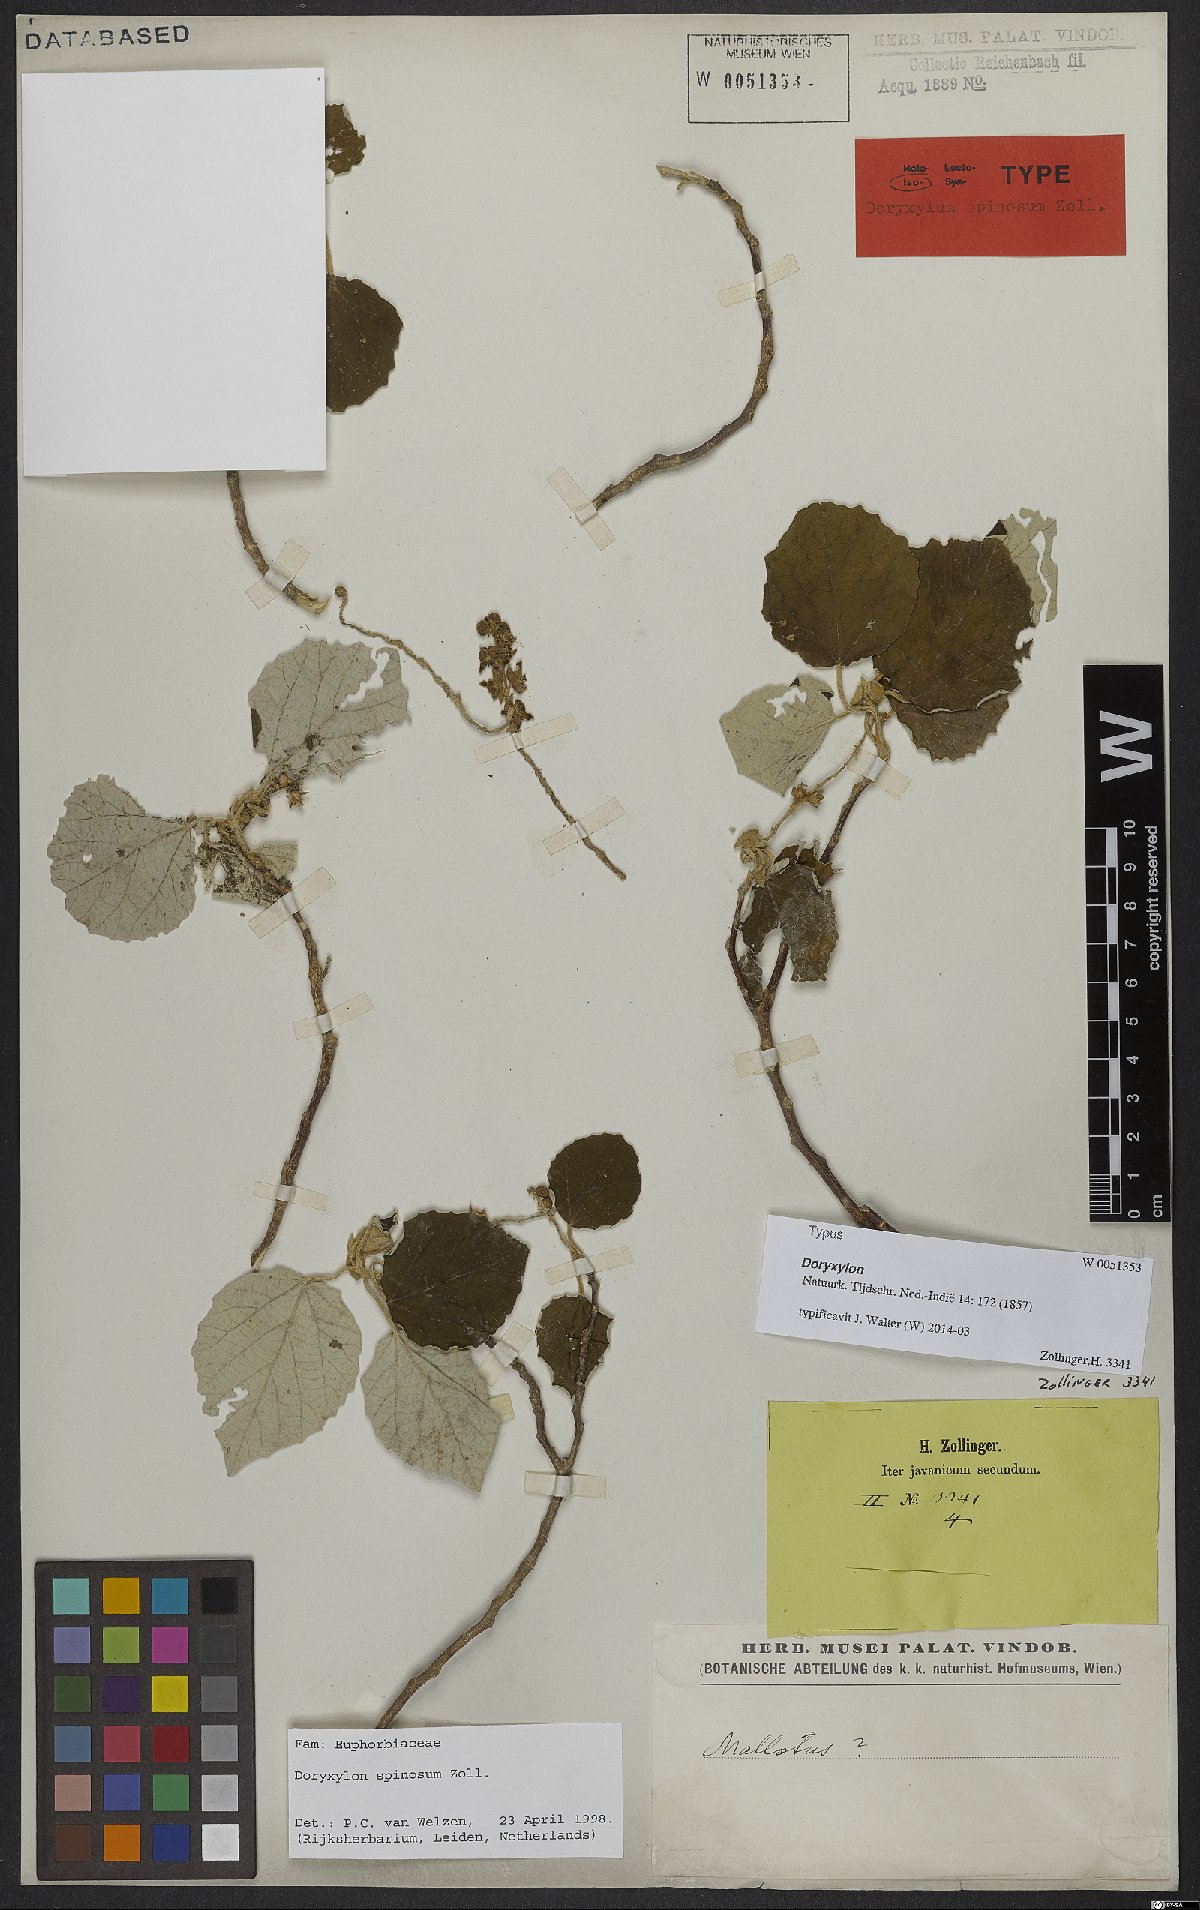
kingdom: Plantae
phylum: Tracheophyta
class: Magnoliopsida
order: Malpighiales
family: Euphorbiaceae
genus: Doryxylon
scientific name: Doryxylon spinosum
